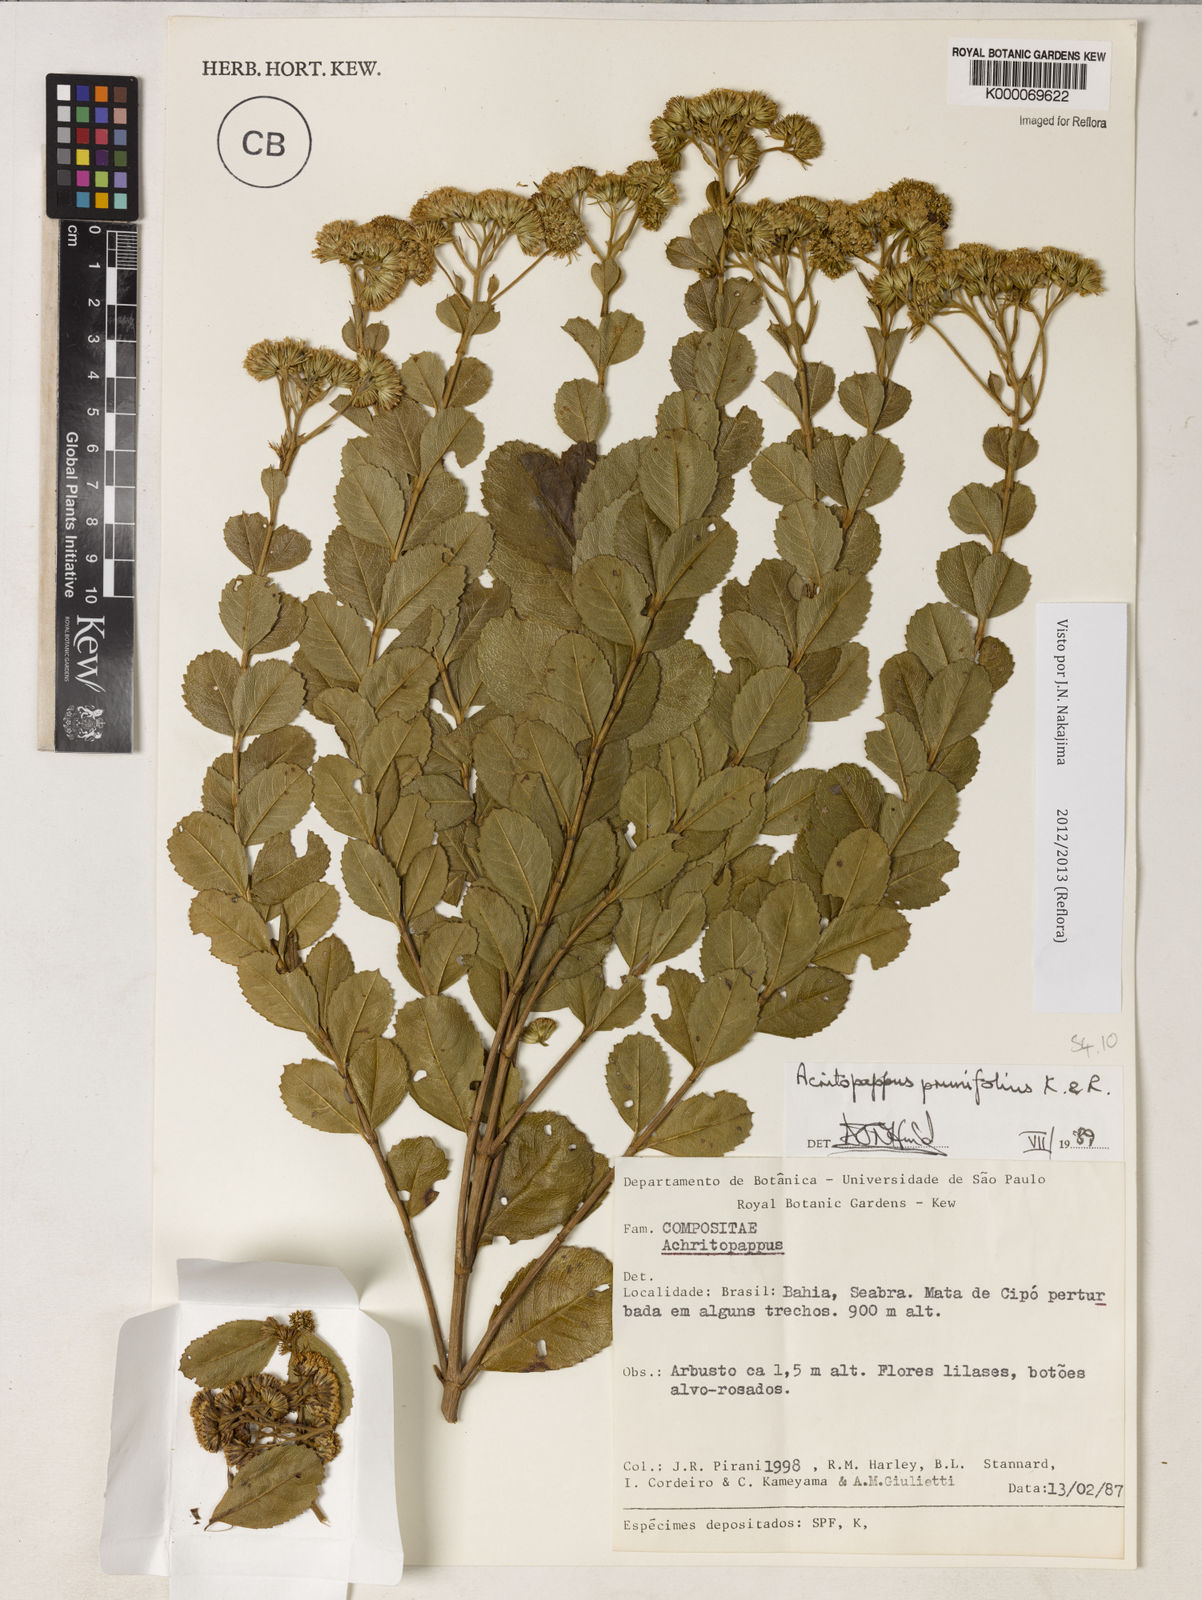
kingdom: Plantae
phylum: Tracheophyta
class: Magnoliopsida
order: Asterales
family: Asteraceae
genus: Acritopappus
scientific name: Acritopappus prunifolius
